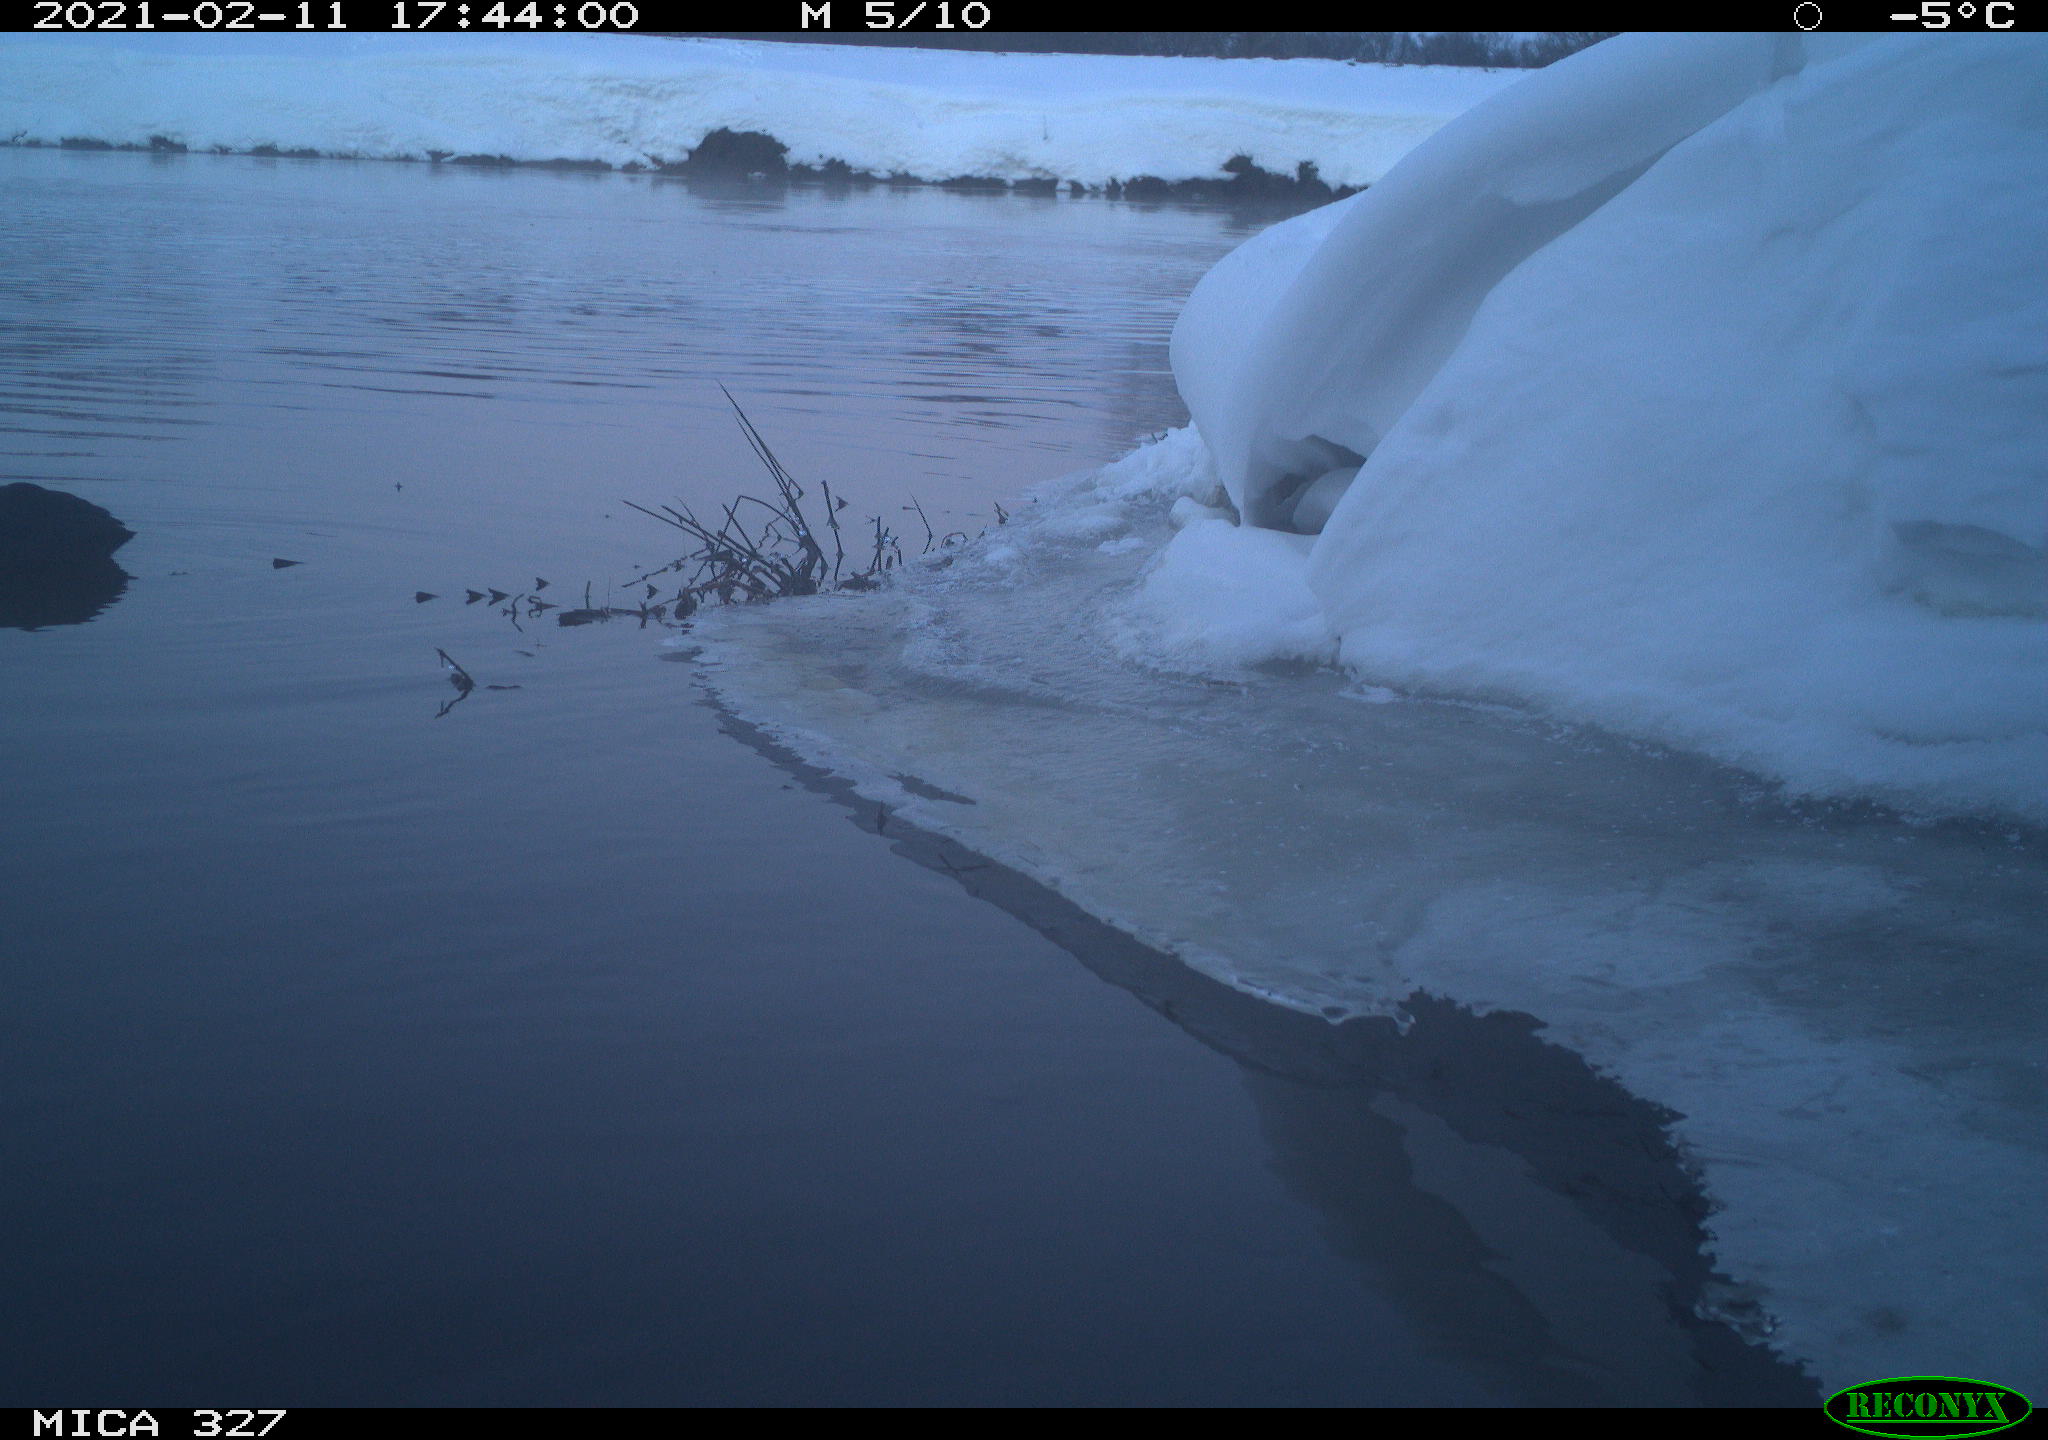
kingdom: Animalia
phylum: Chordata
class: Aves
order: Anseriformes
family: Anatidae
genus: Anas
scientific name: Anas
